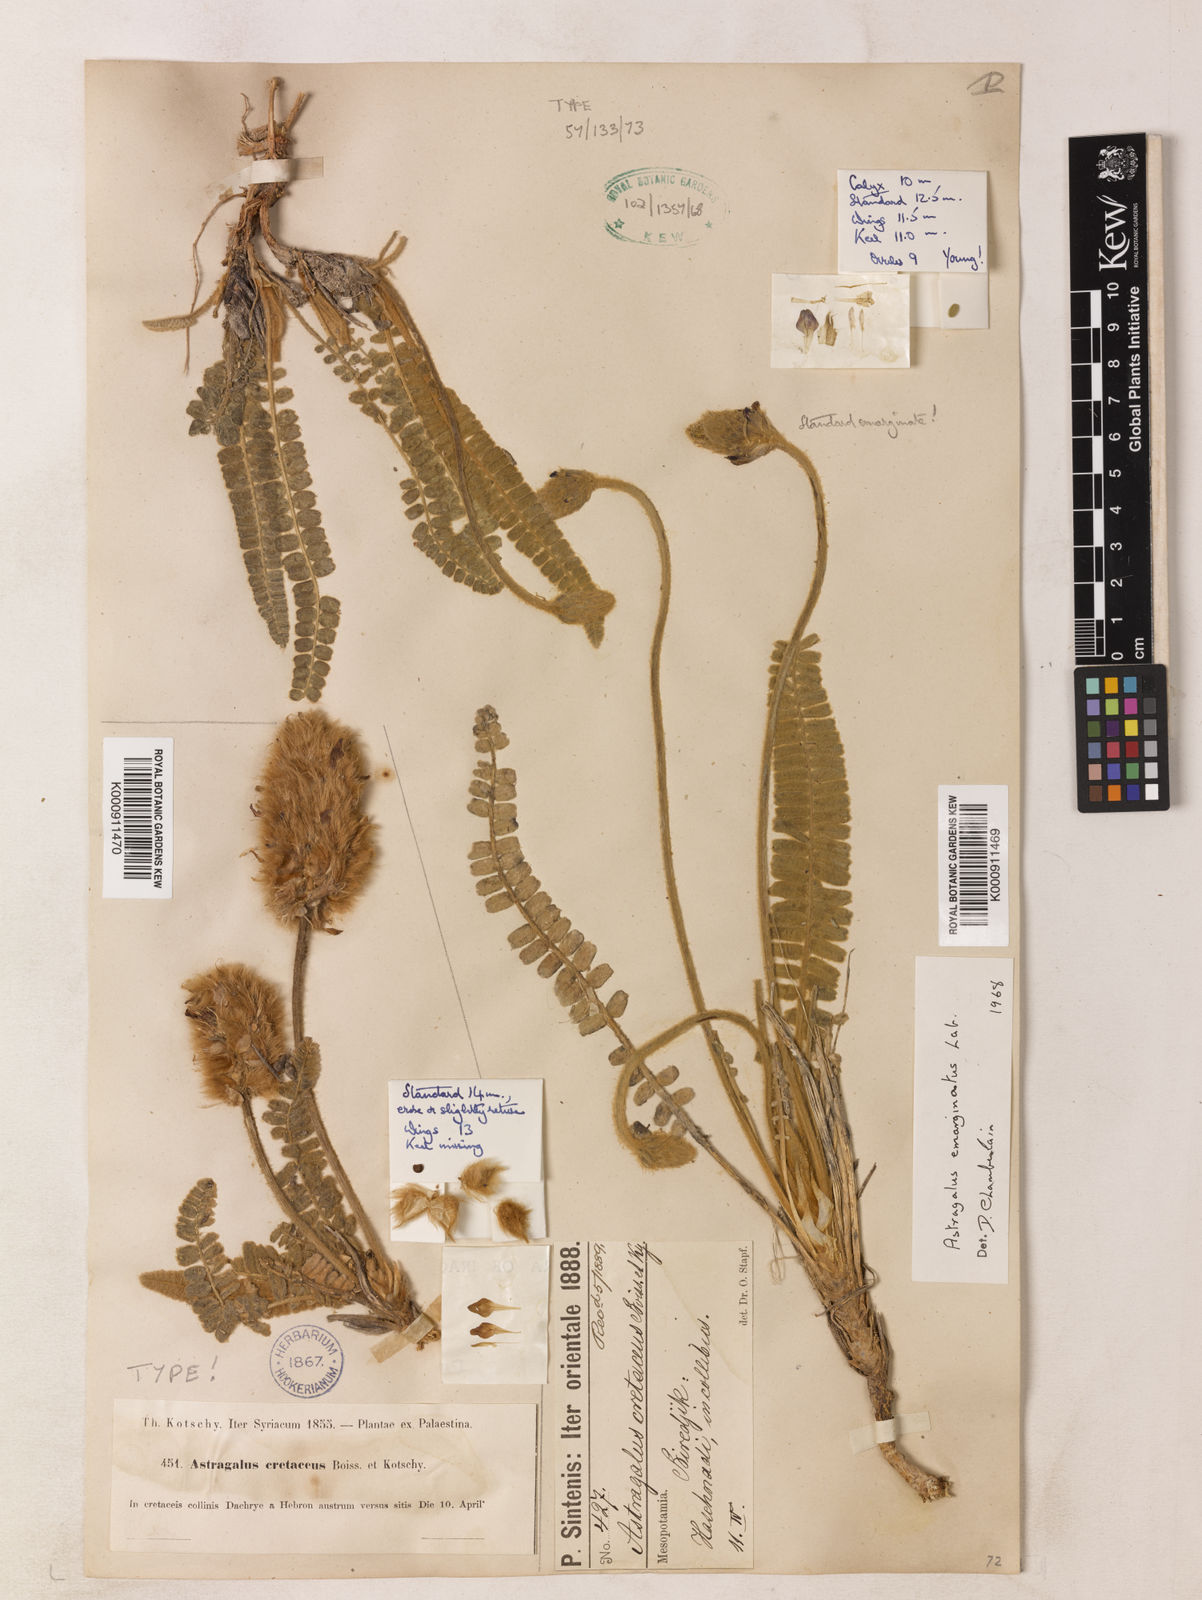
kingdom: Plantae
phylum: Tracheophyta
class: Magnoliopsida
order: Fabales
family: Fabaceae
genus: Astragalus
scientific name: Astragalus cretaceus
